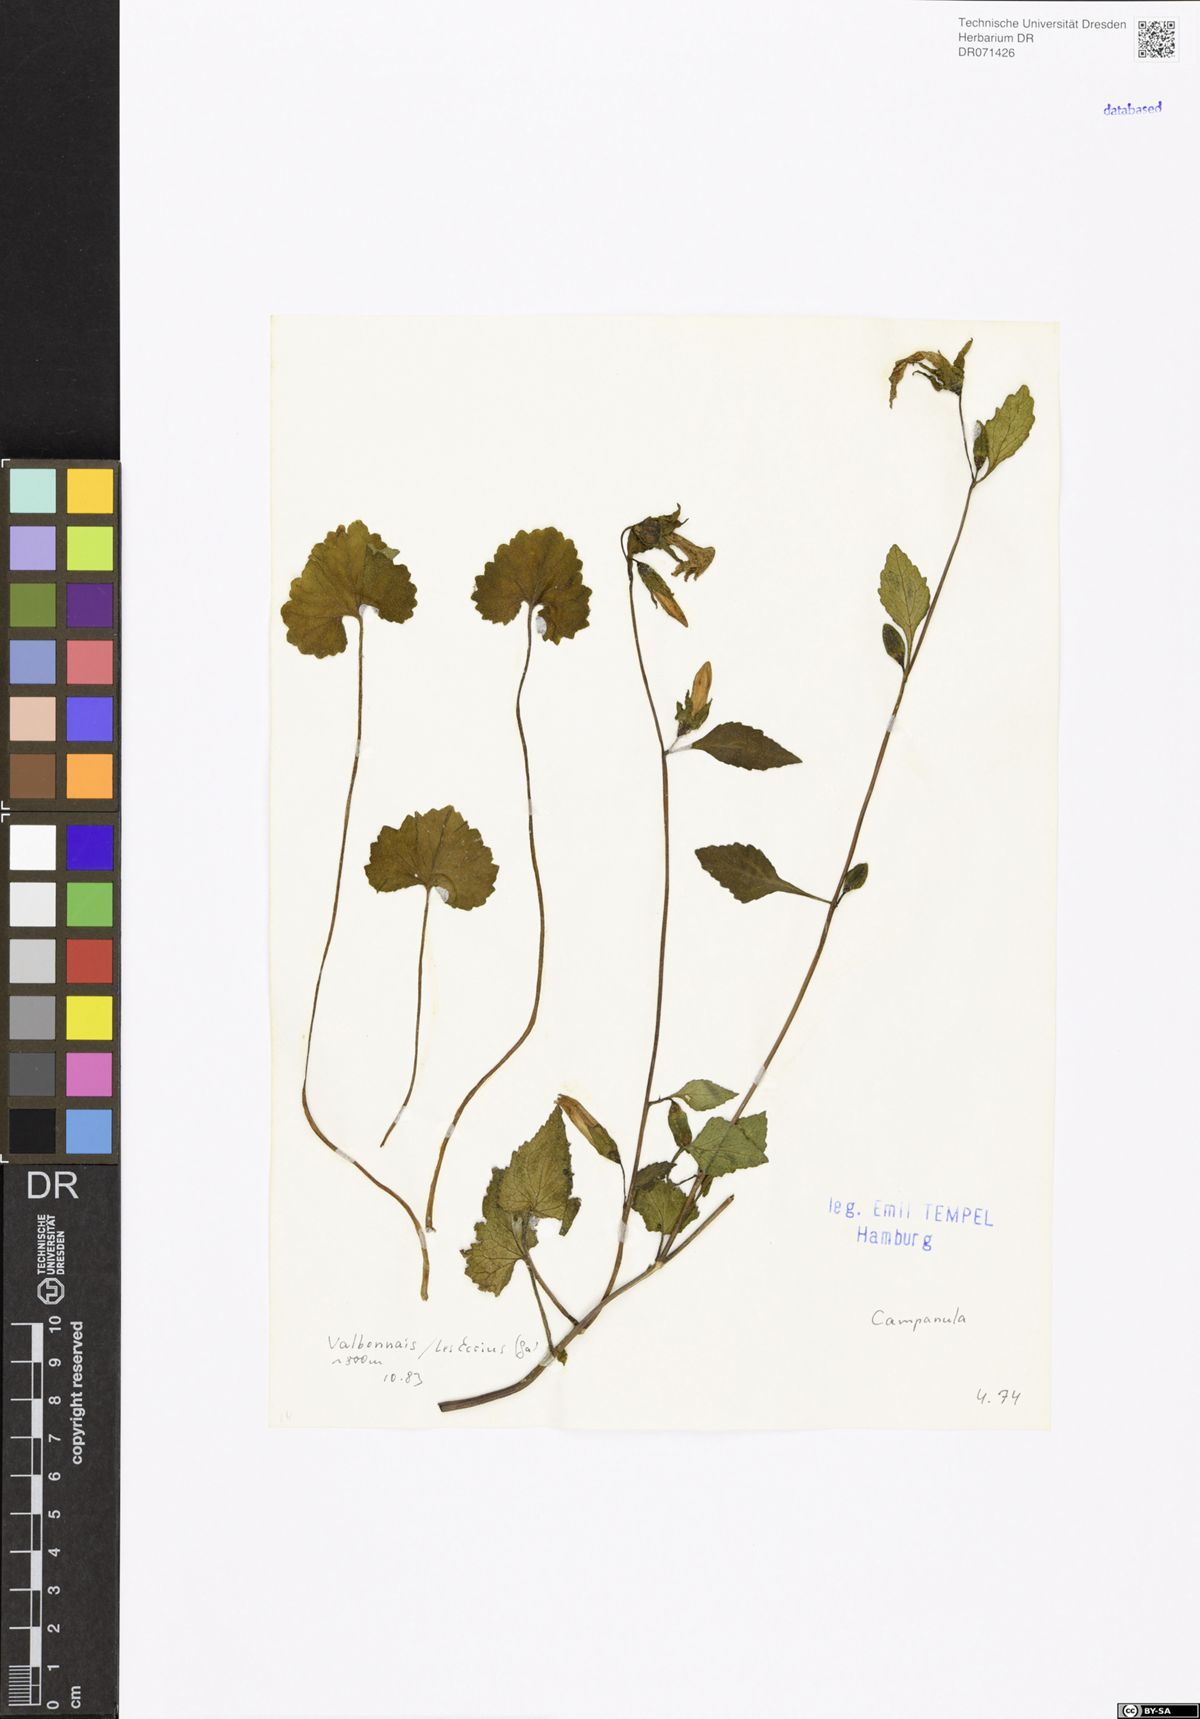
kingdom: Plantae
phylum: Tracheophyta
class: Magnoliopsida
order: Asterales
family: Campanulaceae
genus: Campanula
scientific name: Campanula
